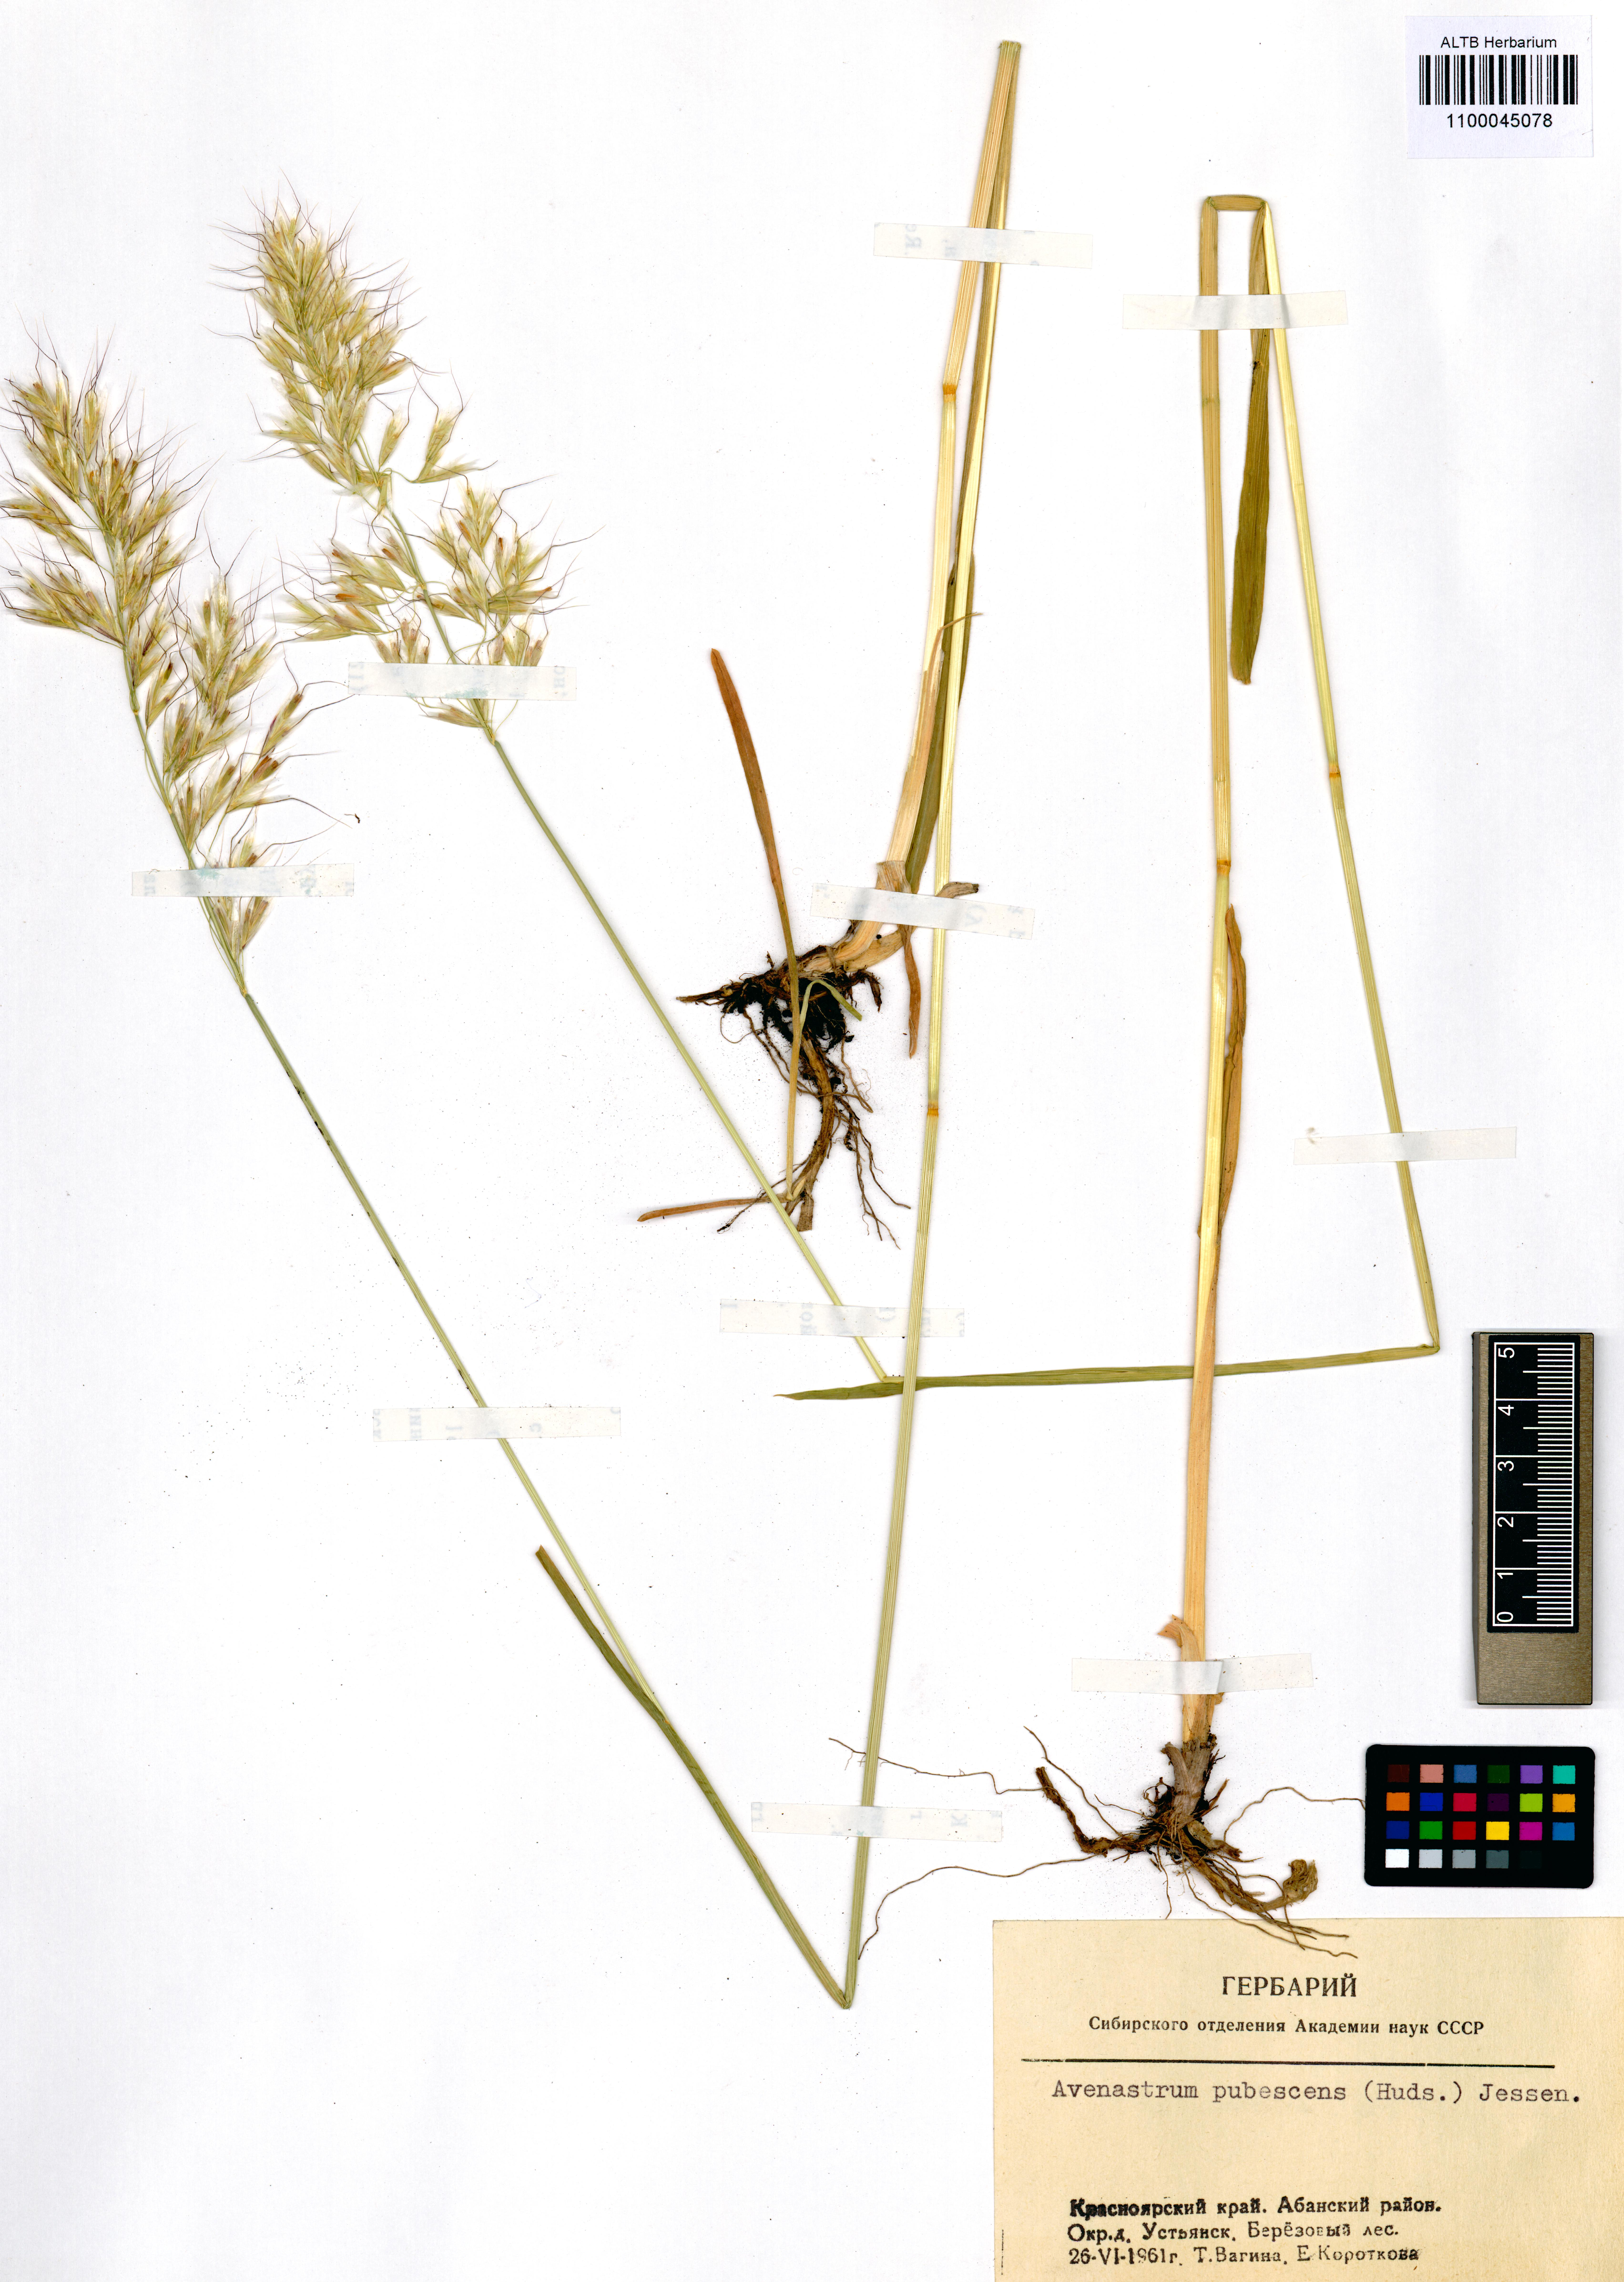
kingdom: Plantae
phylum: Tracheophyta
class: Liliopsida
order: Poales
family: Poaceae
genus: Avenula
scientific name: Avenula pubescens
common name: Downy alpine oatgrass
